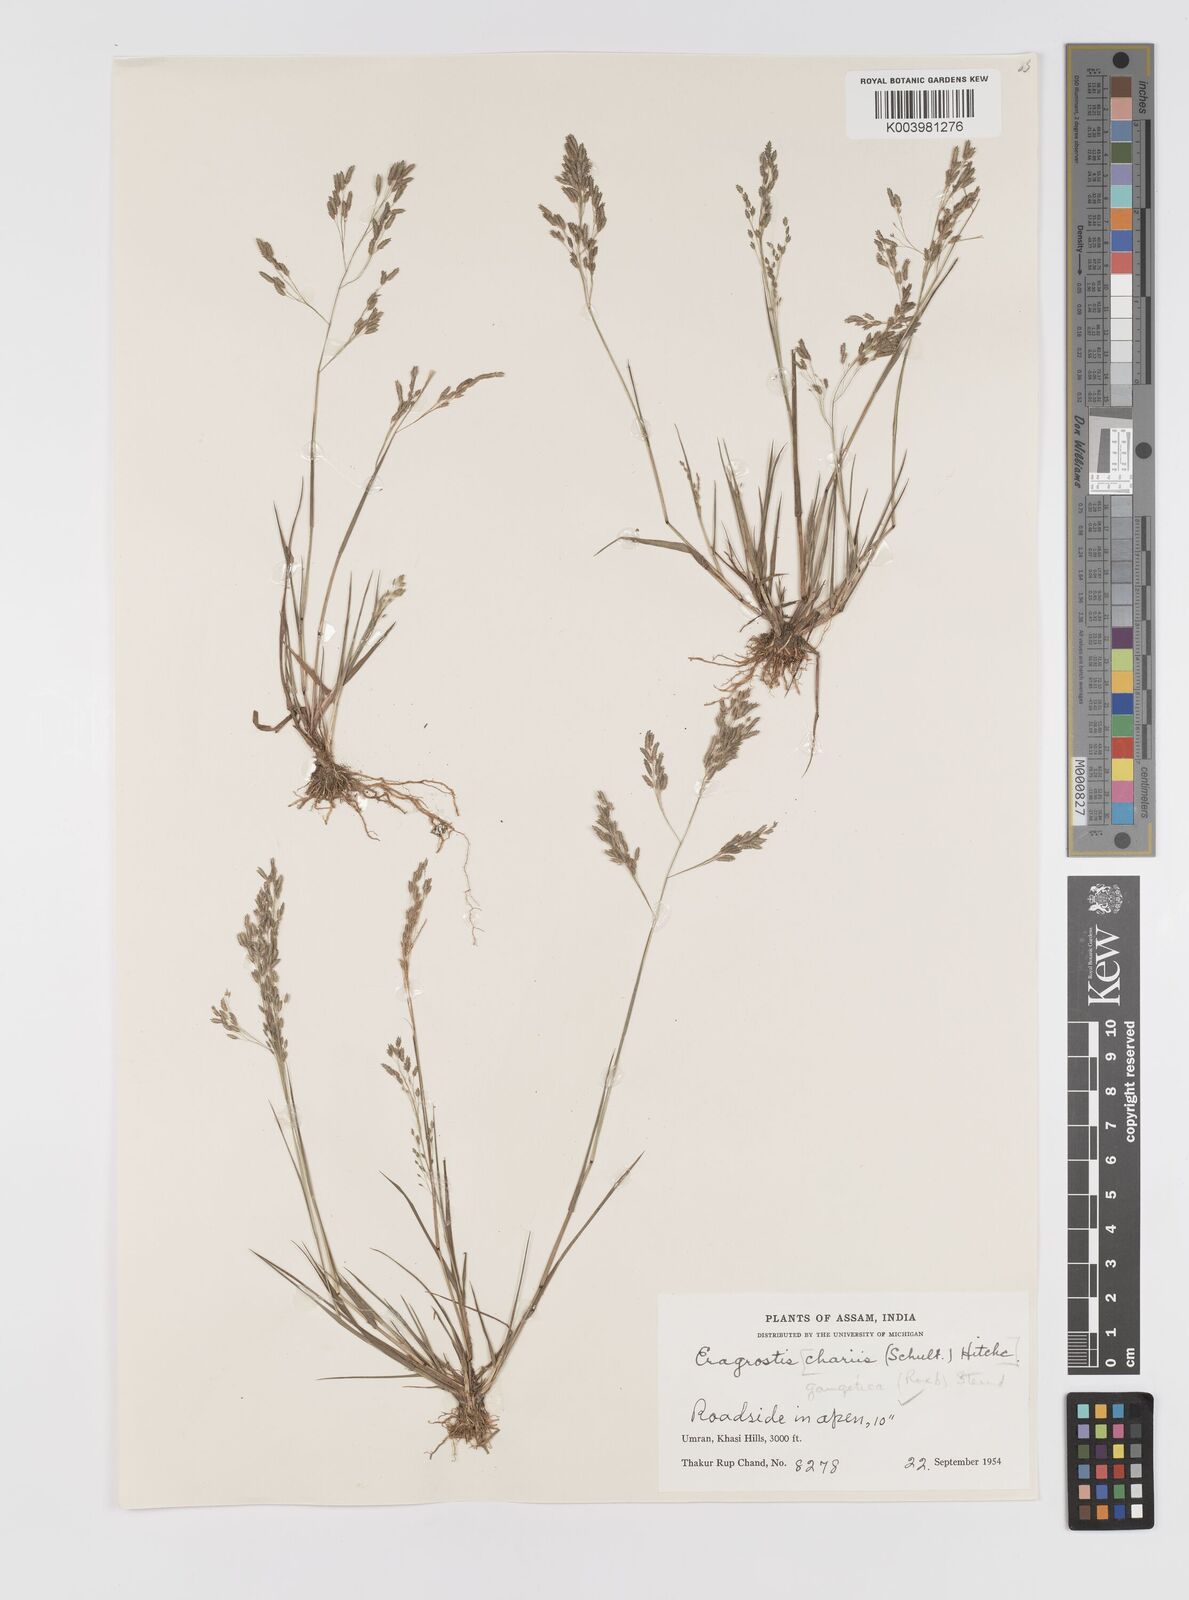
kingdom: Plantae
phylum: Tracheophyta
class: Liliopsida
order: Poales
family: Poaceae
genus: Eragrostis
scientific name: Eragrostis gangetica
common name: Slimflower lovegrass
